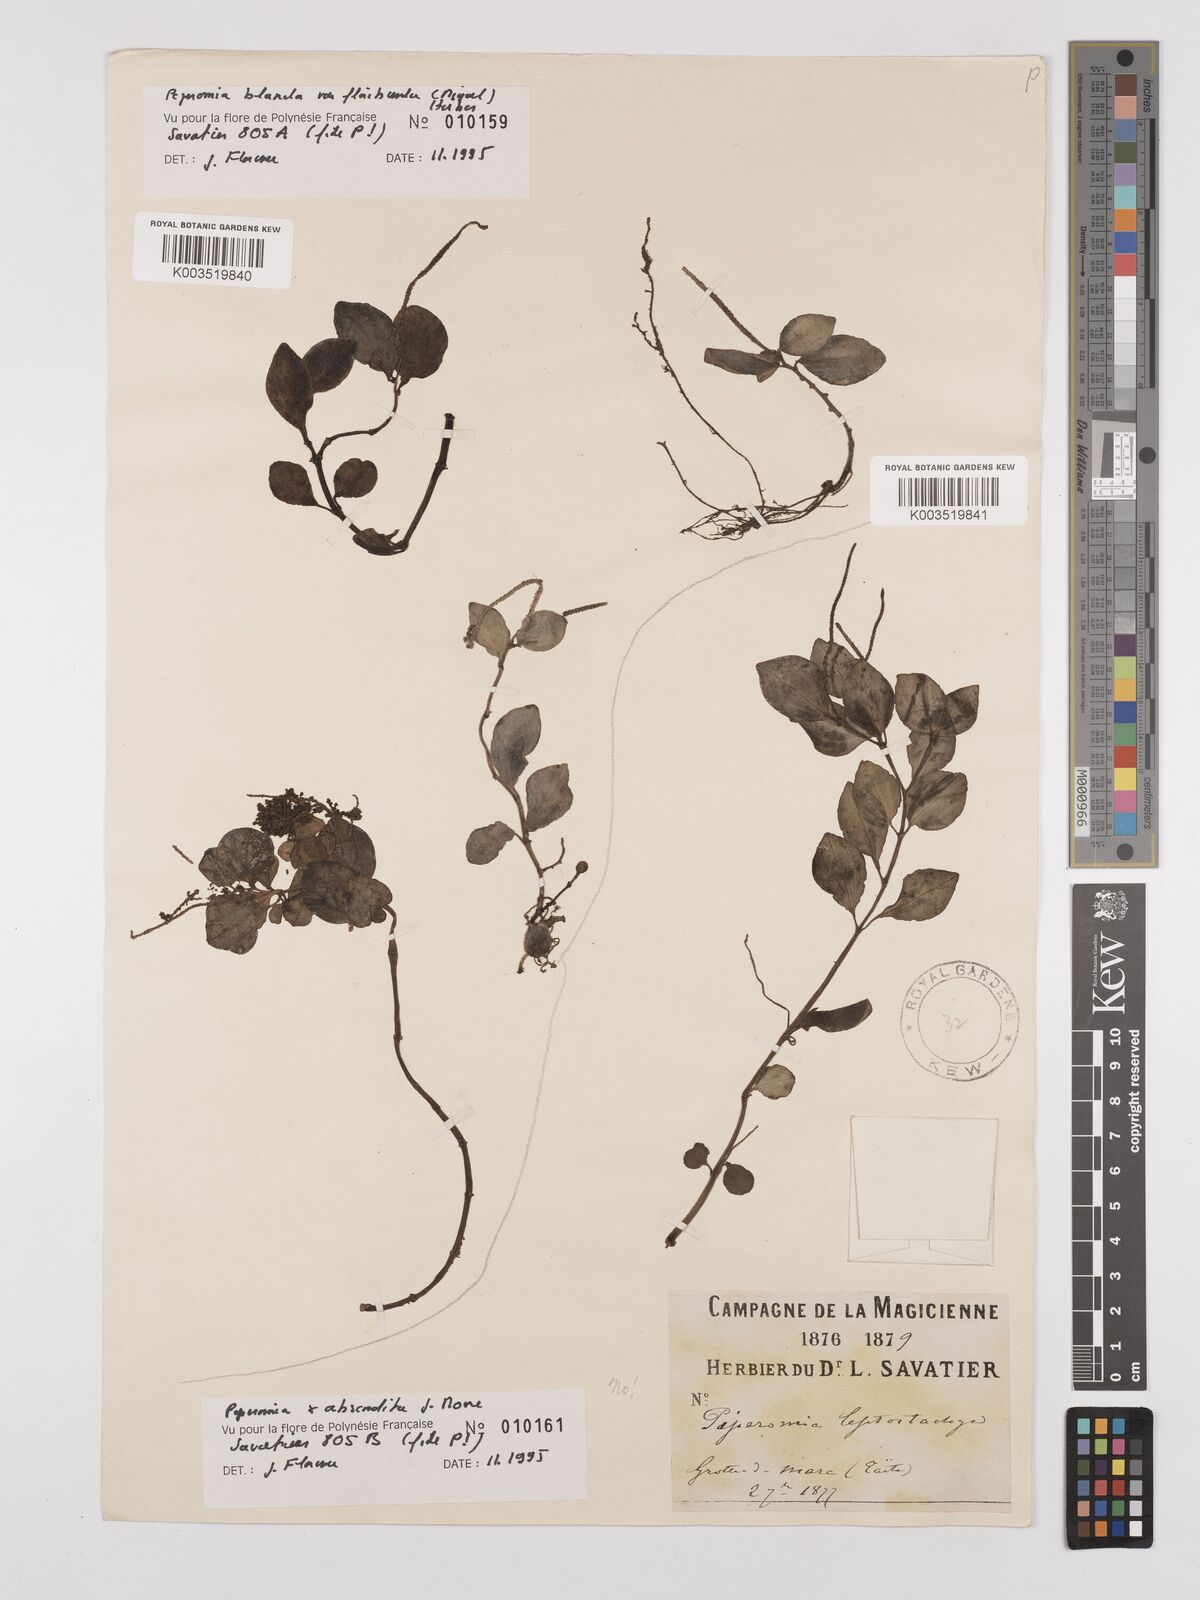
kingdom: Plantae
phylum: Tracheophyta
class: Magnoliopsida
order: Piperales
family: Piperaceae
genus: Peperomia
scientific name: Peperomia leptostachya
